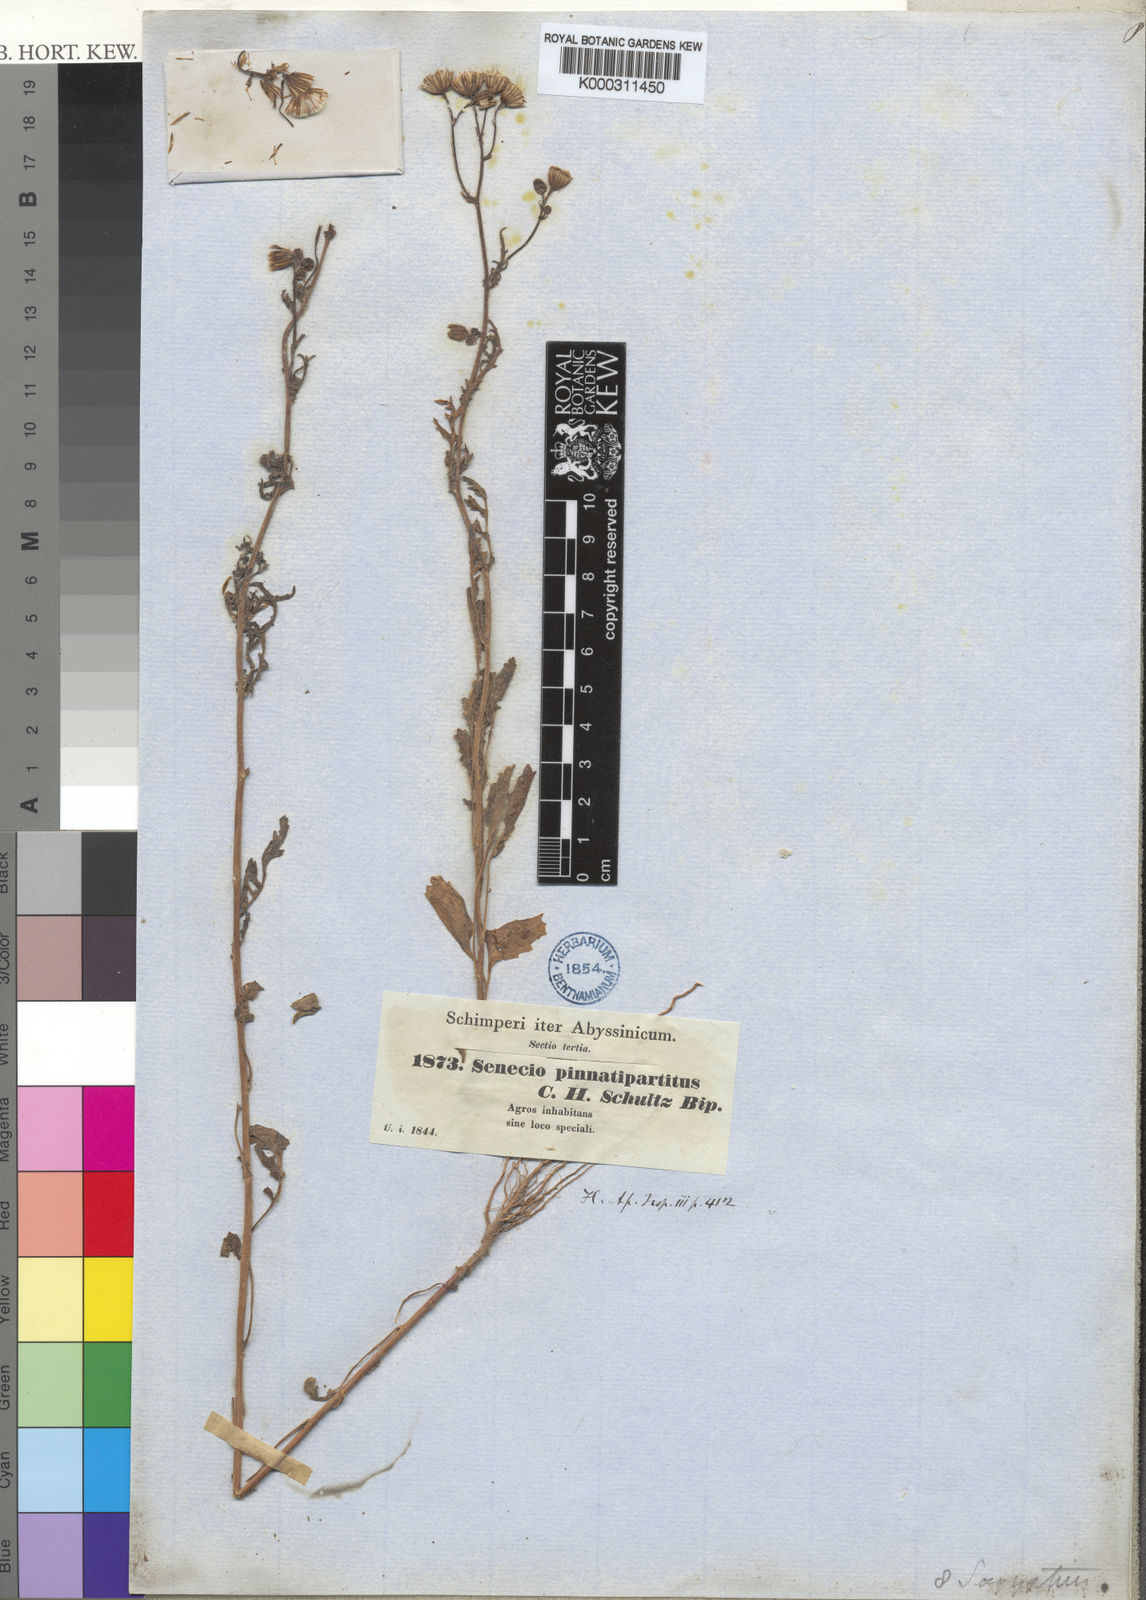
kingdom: Plantae
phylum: Tracheophyta
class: Magnoliopsida
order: Asterales
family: Asteraceae
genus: Senecio
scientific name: Senecio pinnatipartitus
